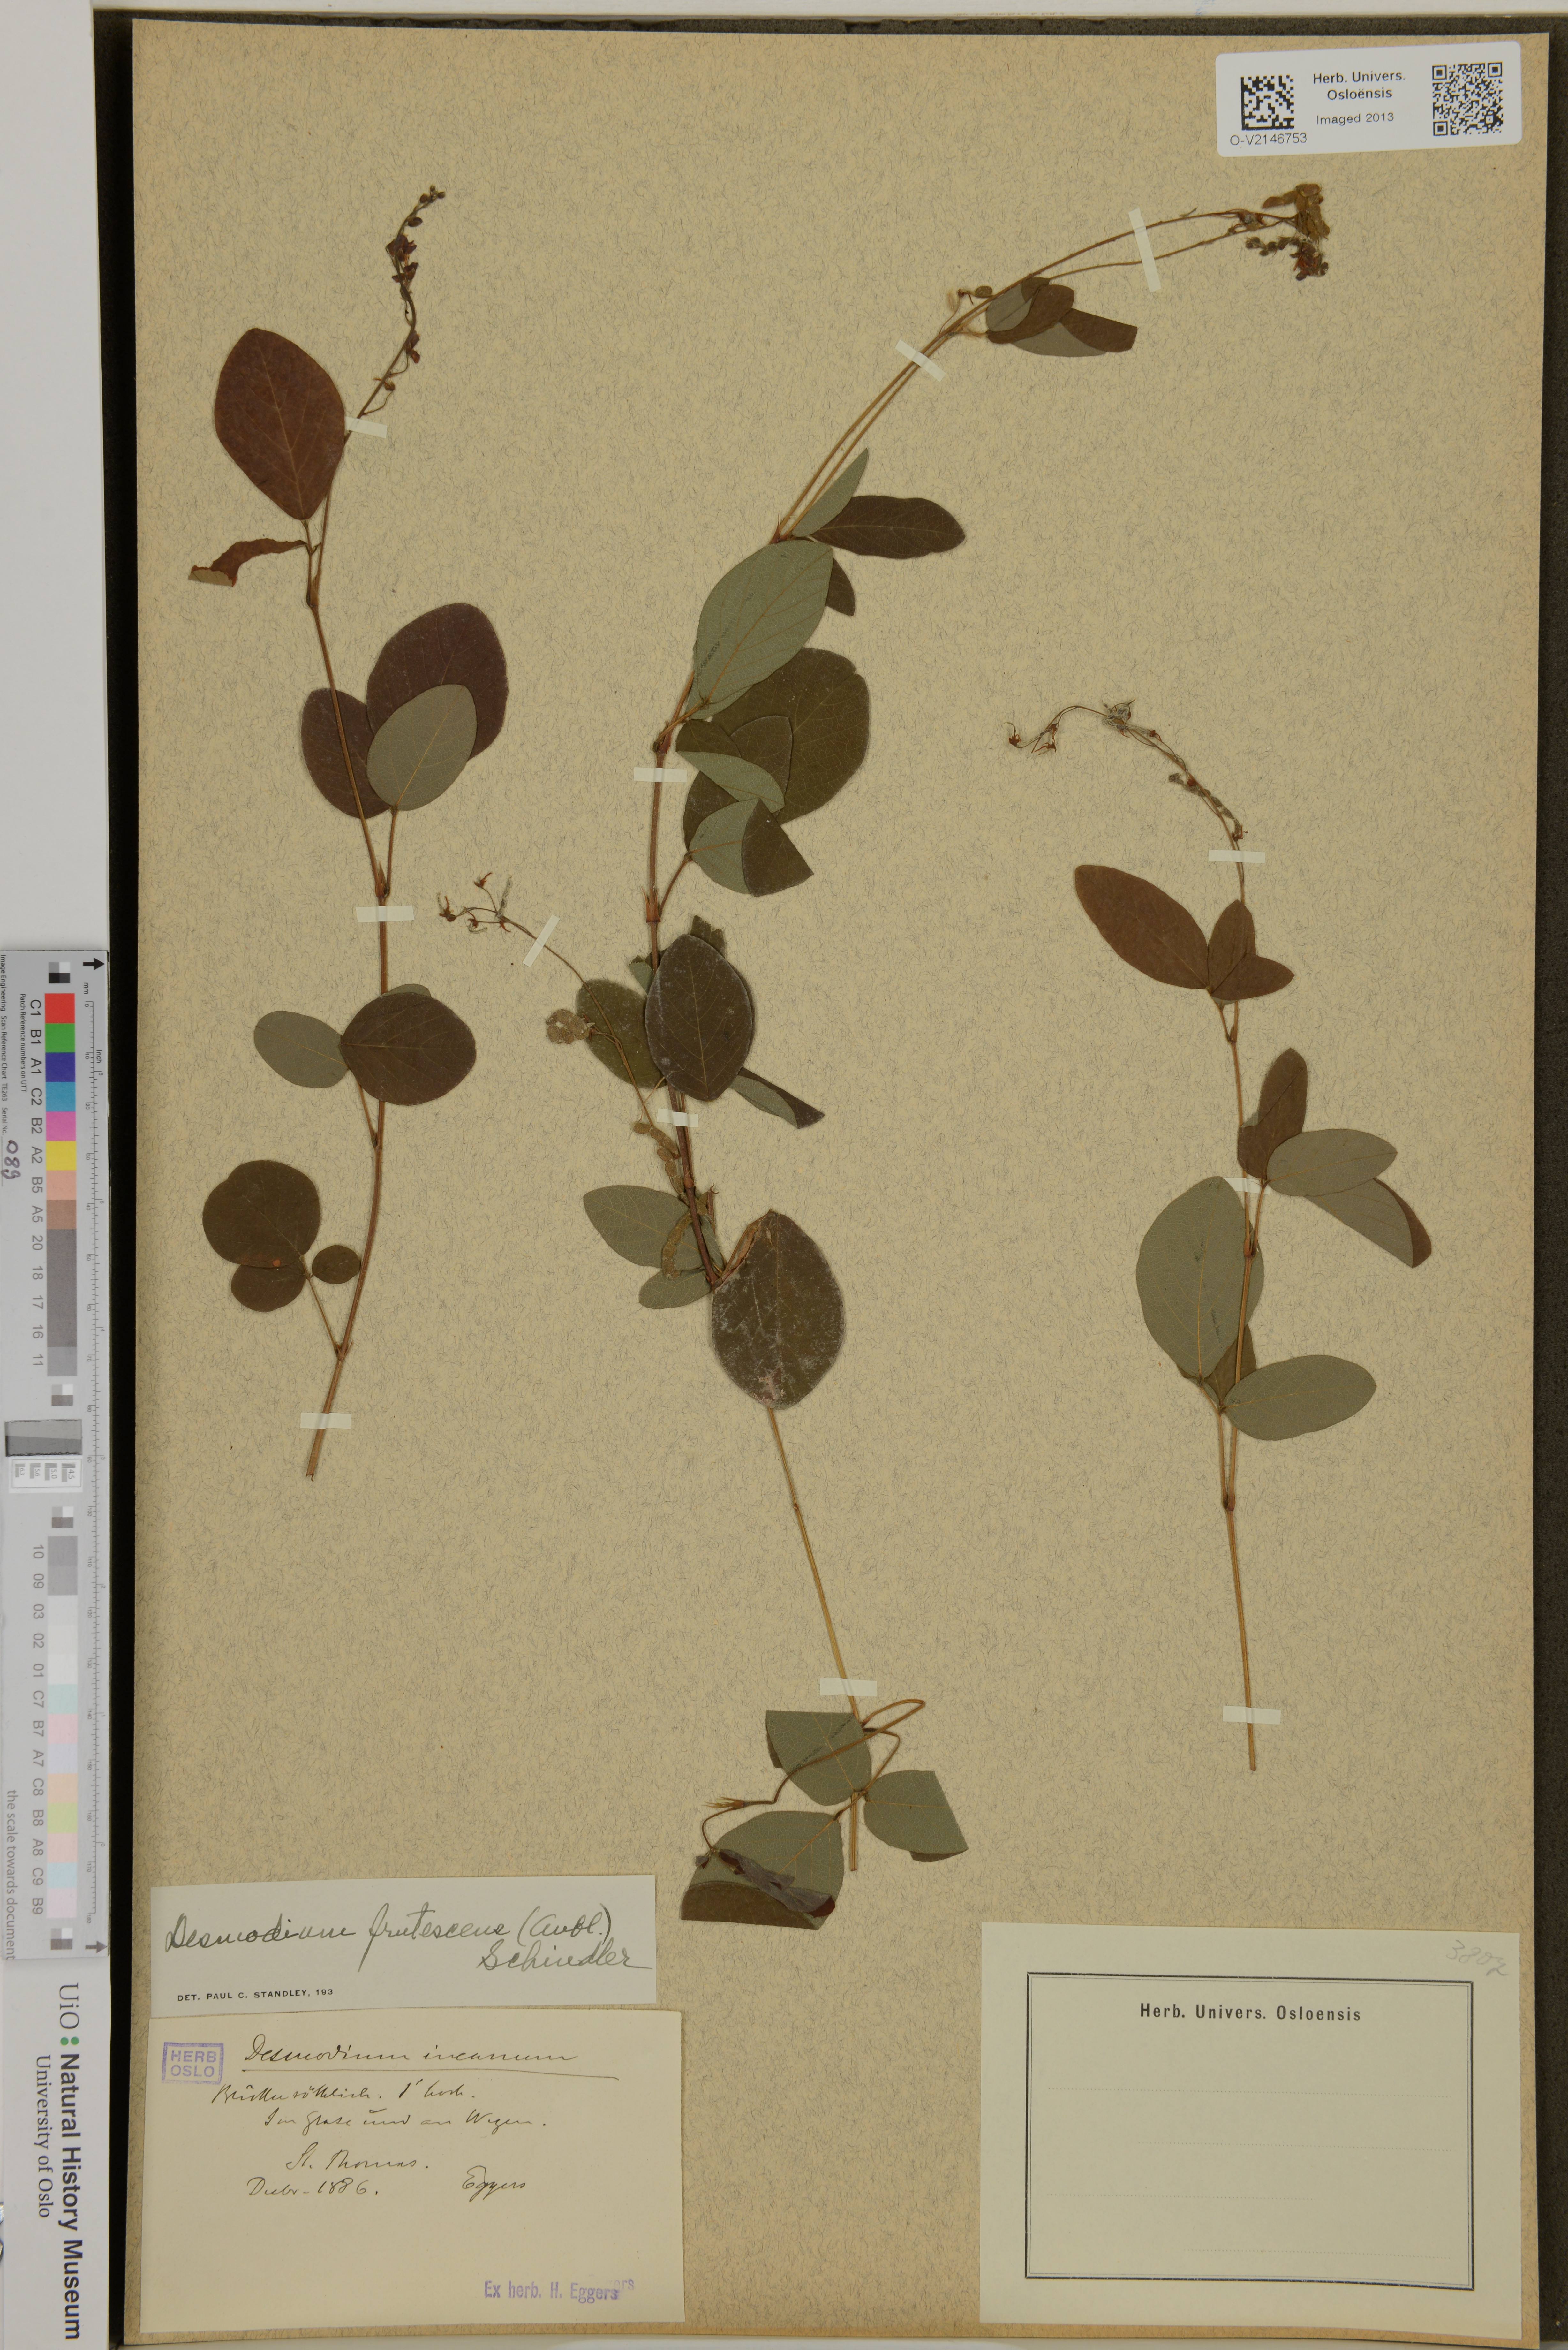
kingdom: Plantae
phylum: Tracheophyta
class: Magnoliopsida
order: Fabales
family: Fabaceae
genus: Desmodium
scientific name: Desmodium incanum
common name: Tickclover
